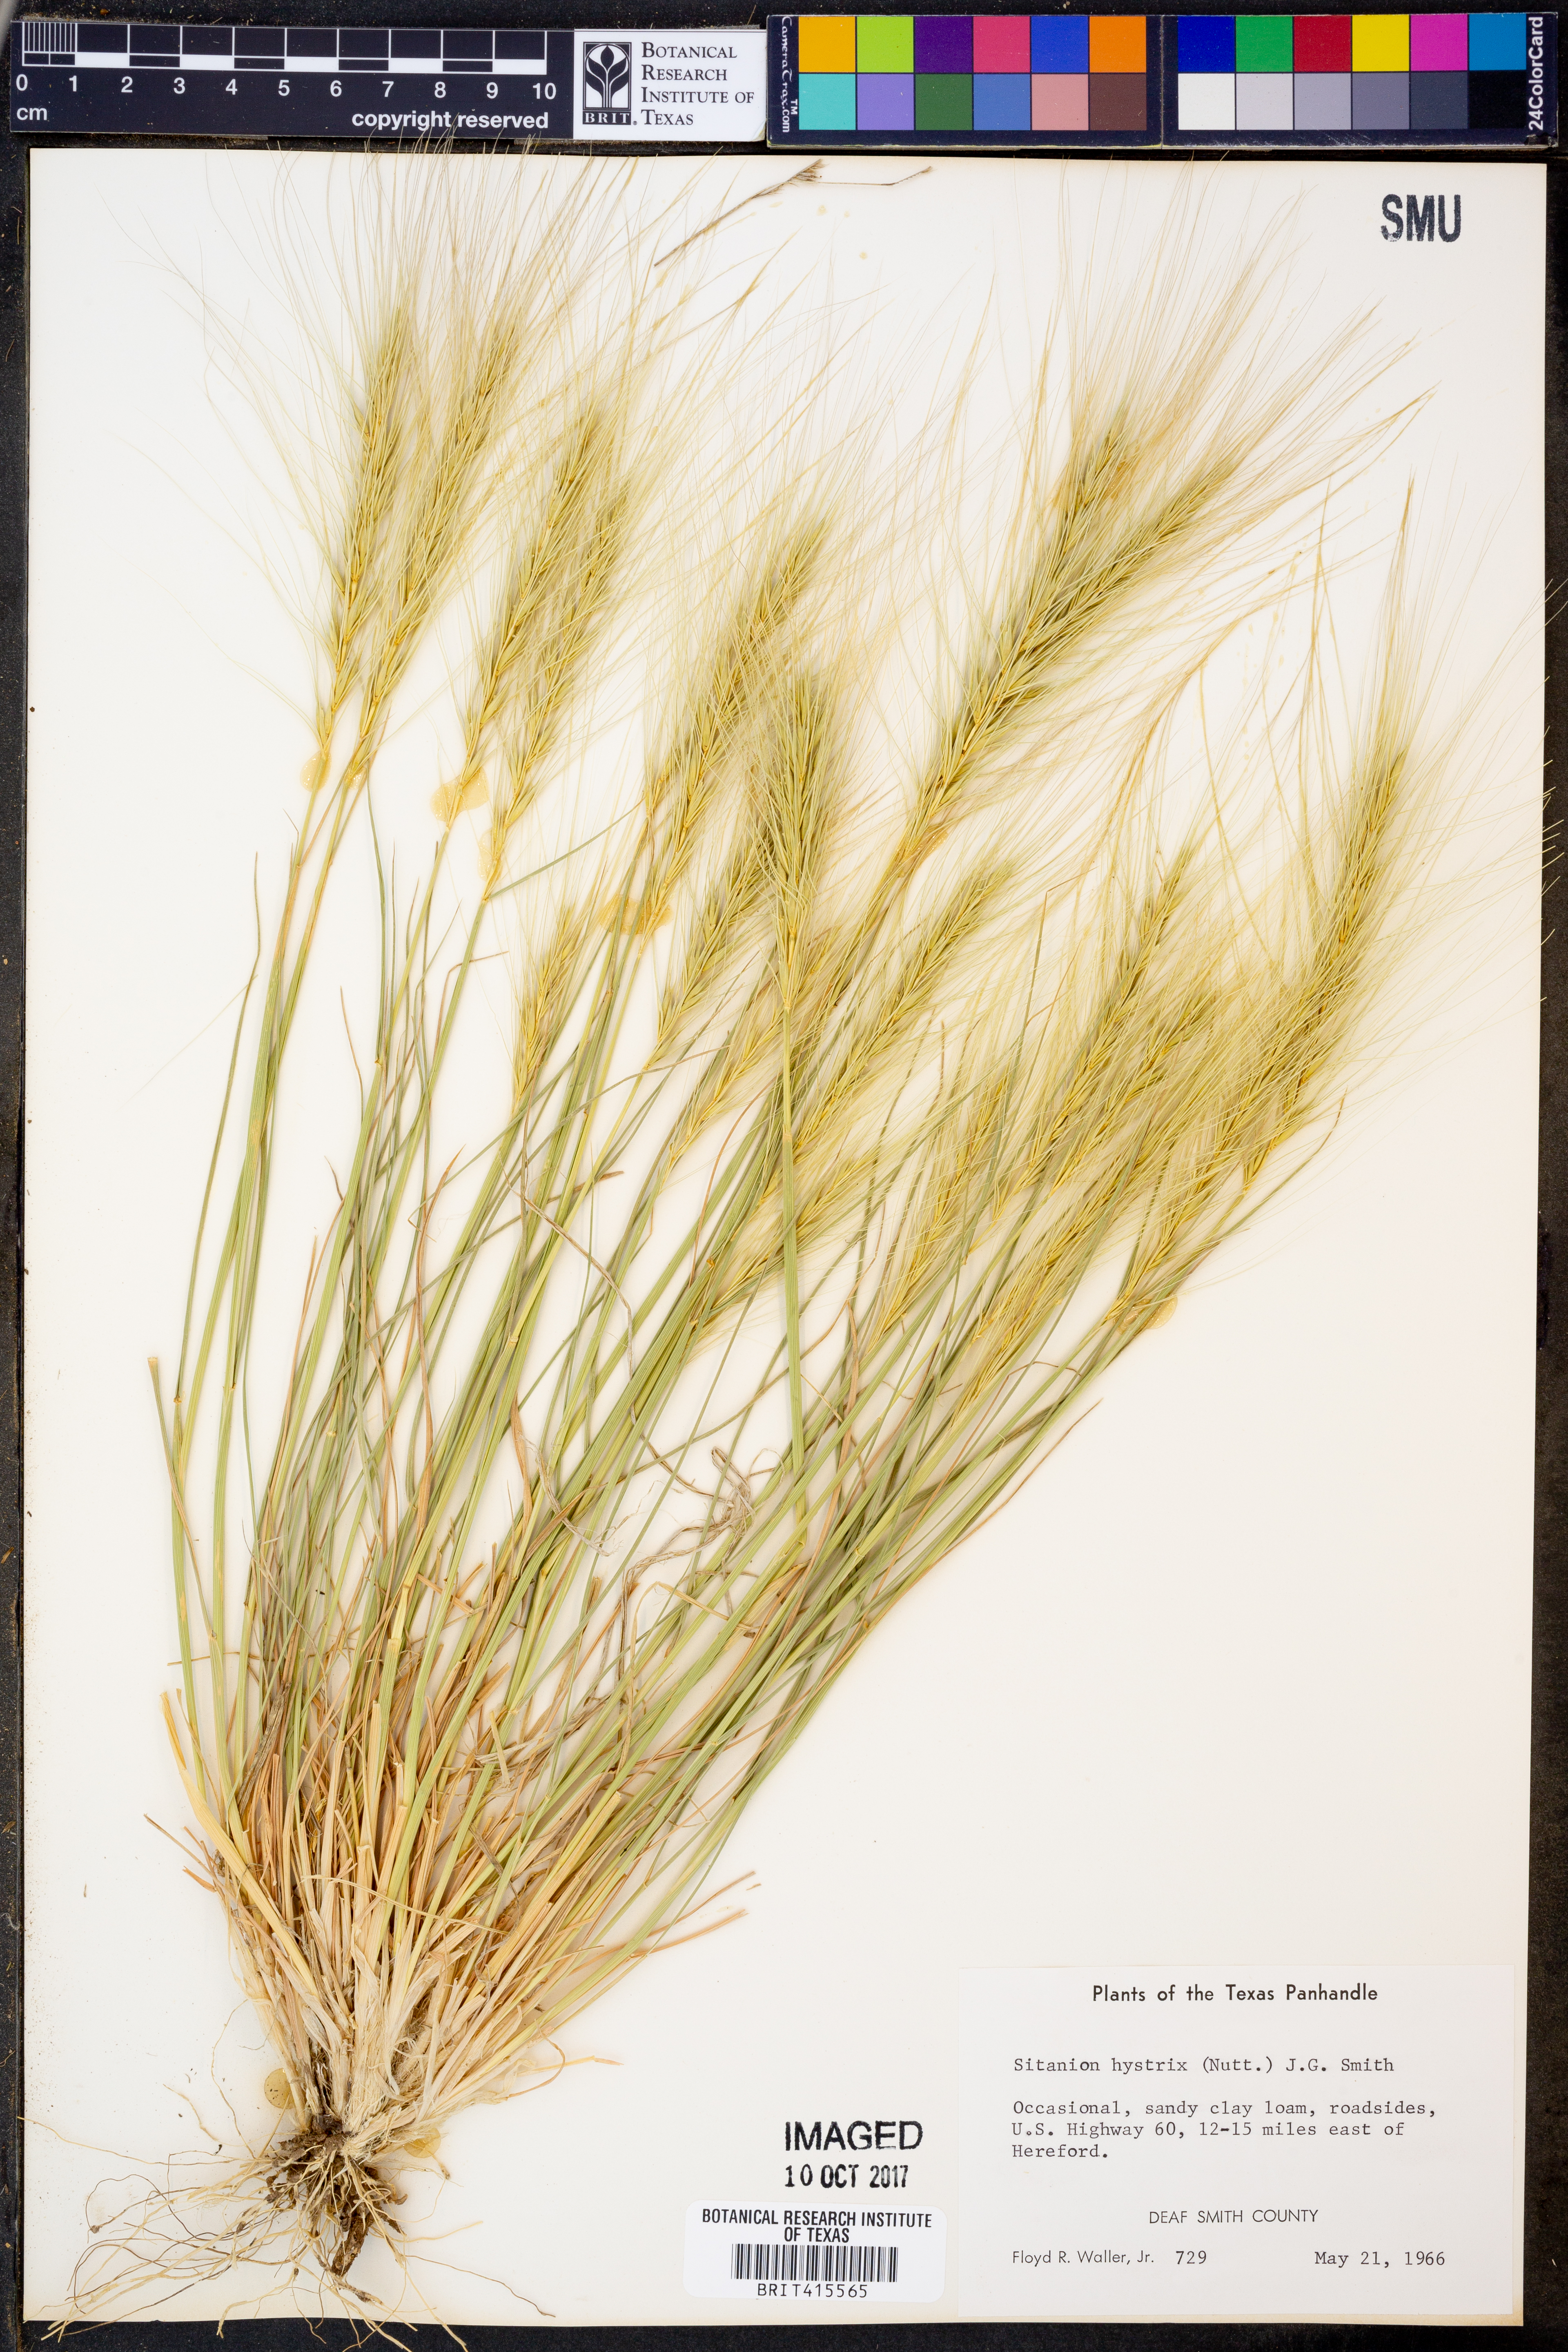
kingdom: Plantae
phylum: Tracheophyta
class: Liliopsida
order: Poales
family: Poaceae
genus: Elymus
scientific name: Elymus elymoides
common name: Bottlebrush squirreltail
